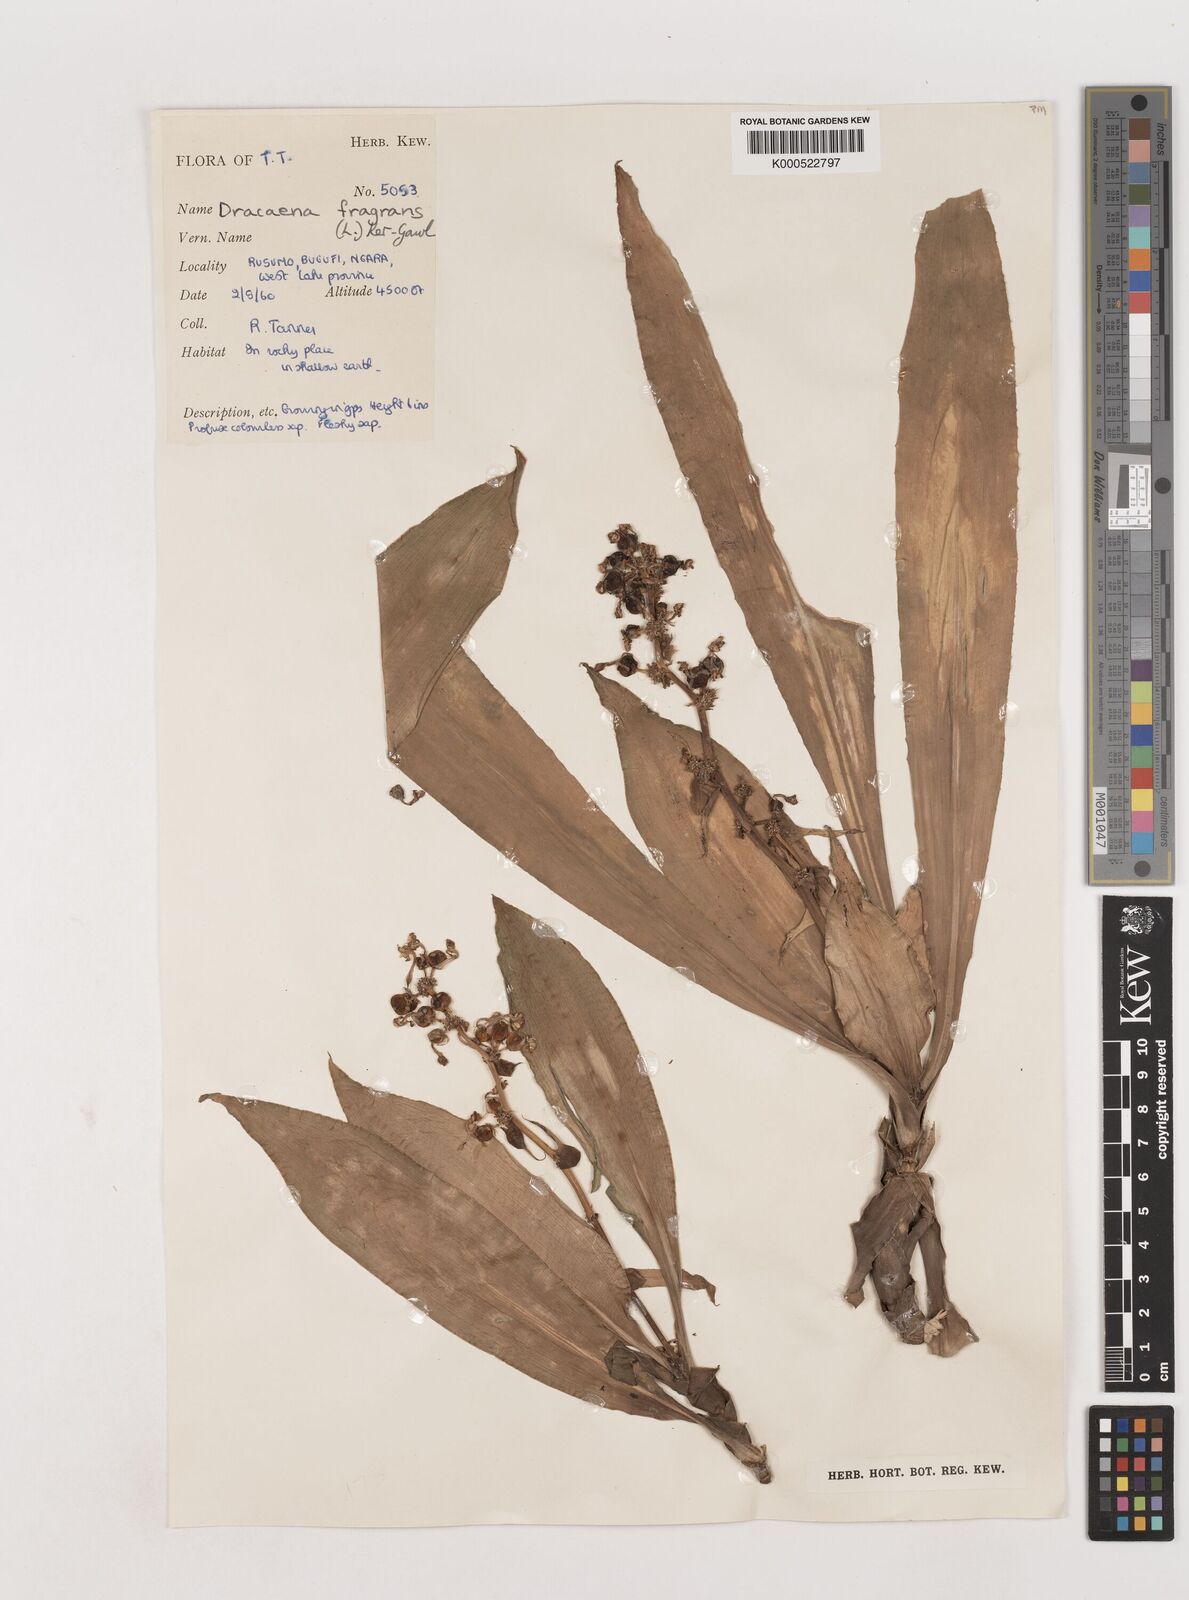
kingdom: Plantae
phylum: Tracheophyta
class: Liliopsida
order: Asparagales
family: Asparagaceae
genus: Dracaena
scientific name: Dracaena fragrans
